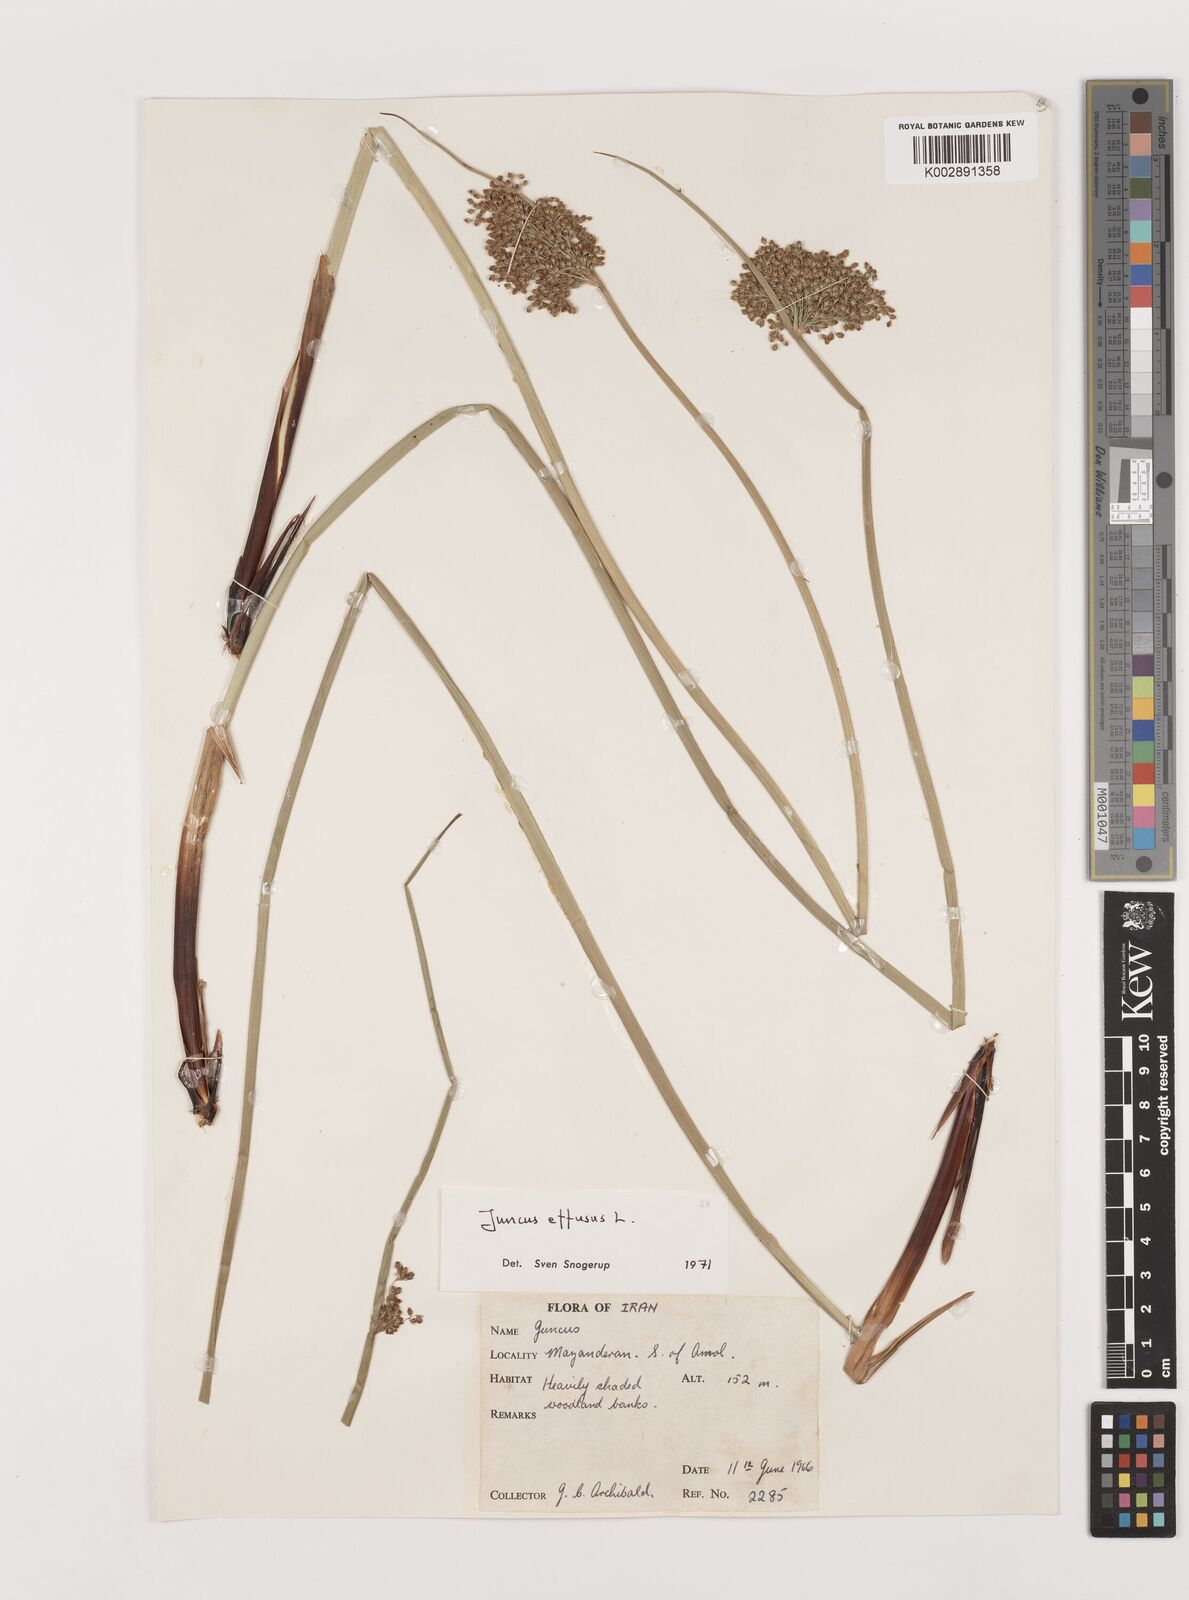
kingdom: Plantae
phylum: Tracheophyta
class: Liliopsida
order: Poales
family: Juncaceae
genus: Juncus
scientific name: Juncus effusus
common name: Soft rush
